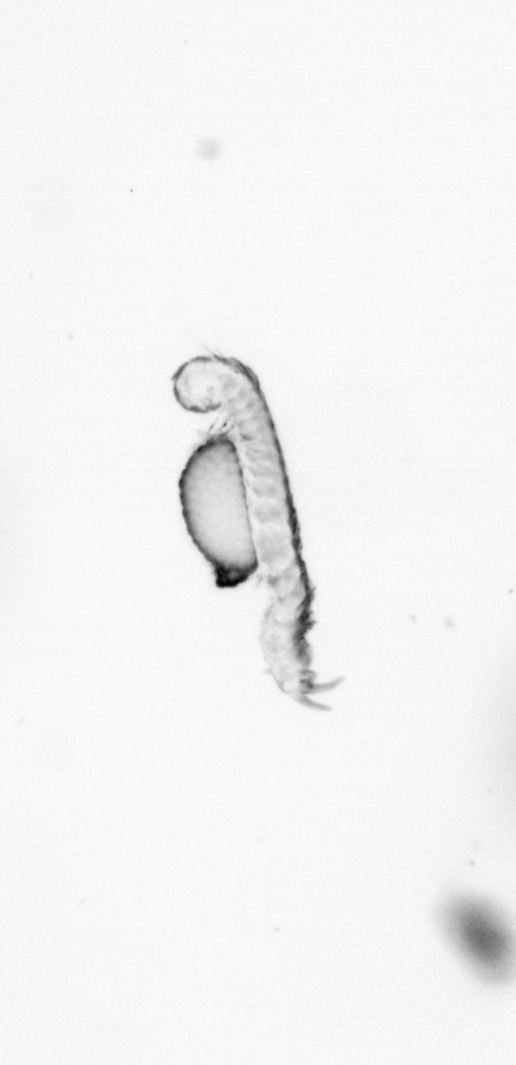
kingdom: Animalia
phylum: Annelida
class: Polychaeta
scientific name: Polychaeta
